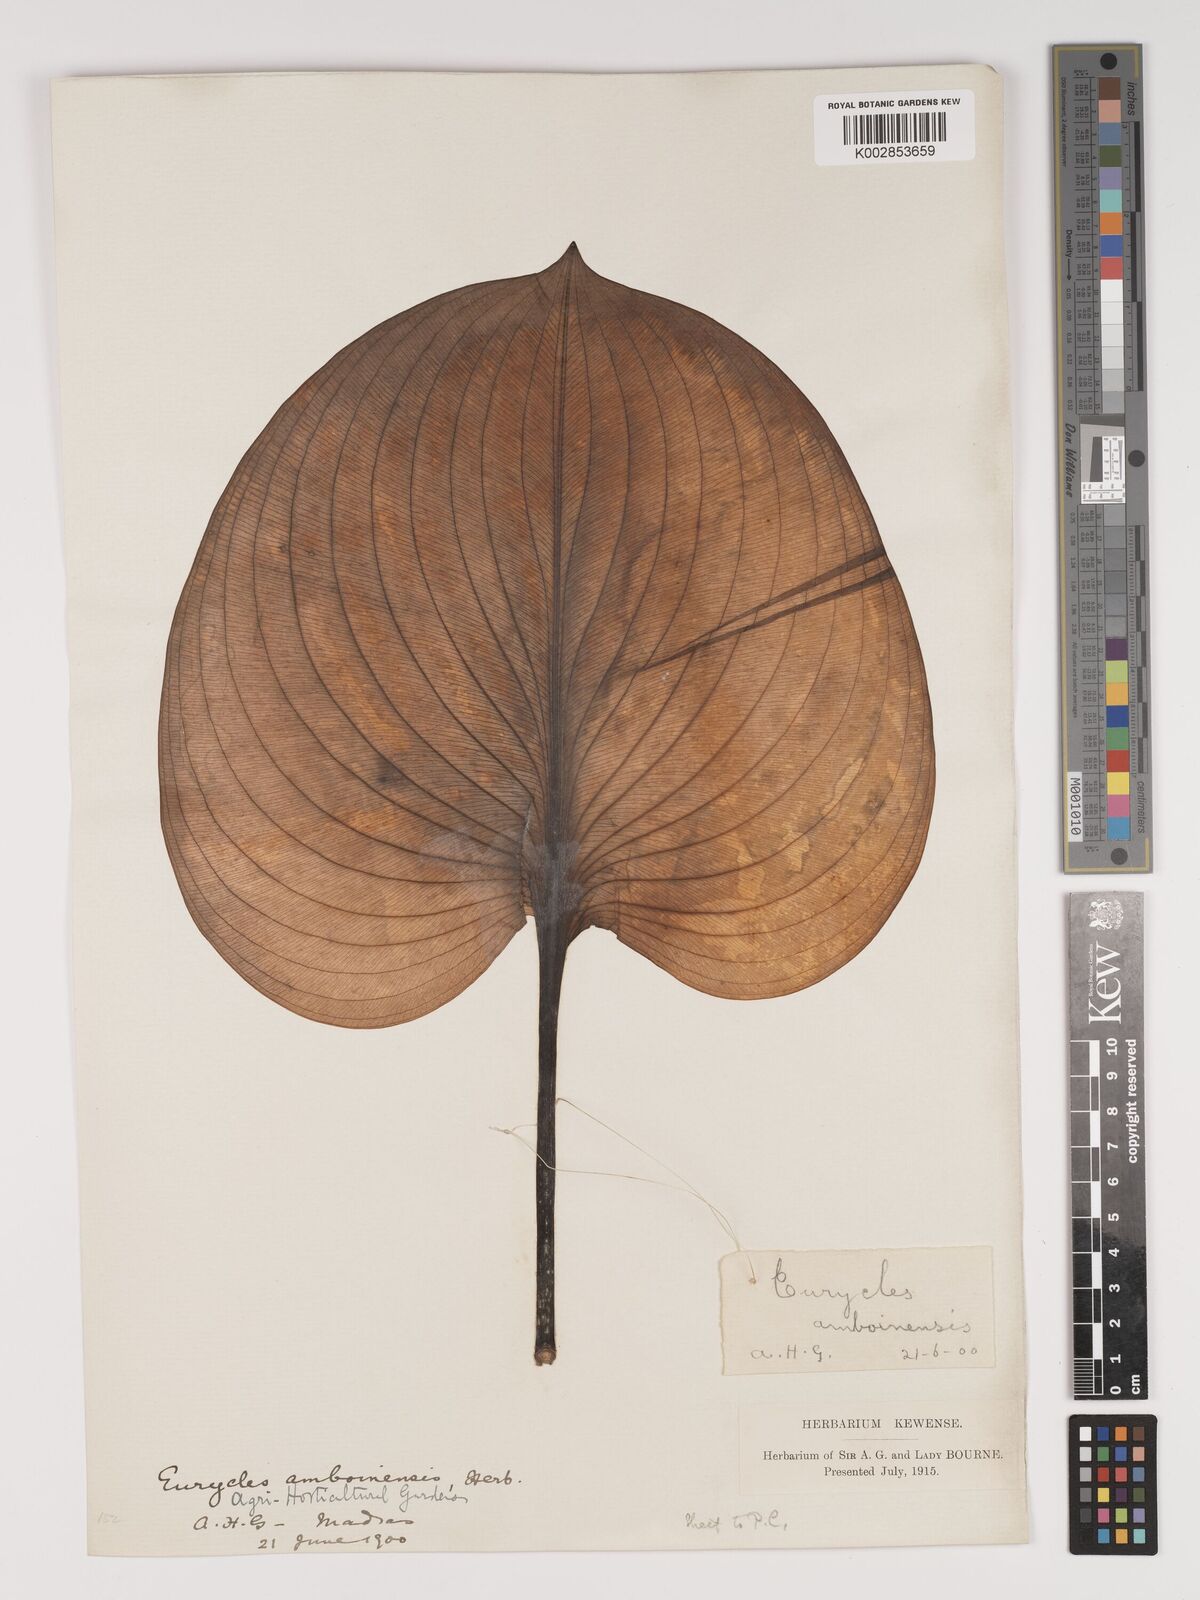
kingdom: Plantae
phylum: Tracheophyta
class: Liliopsida
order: Asparagales
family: Amaryllidaceae
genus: Proiphys
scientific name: Proiphys amboinensis
